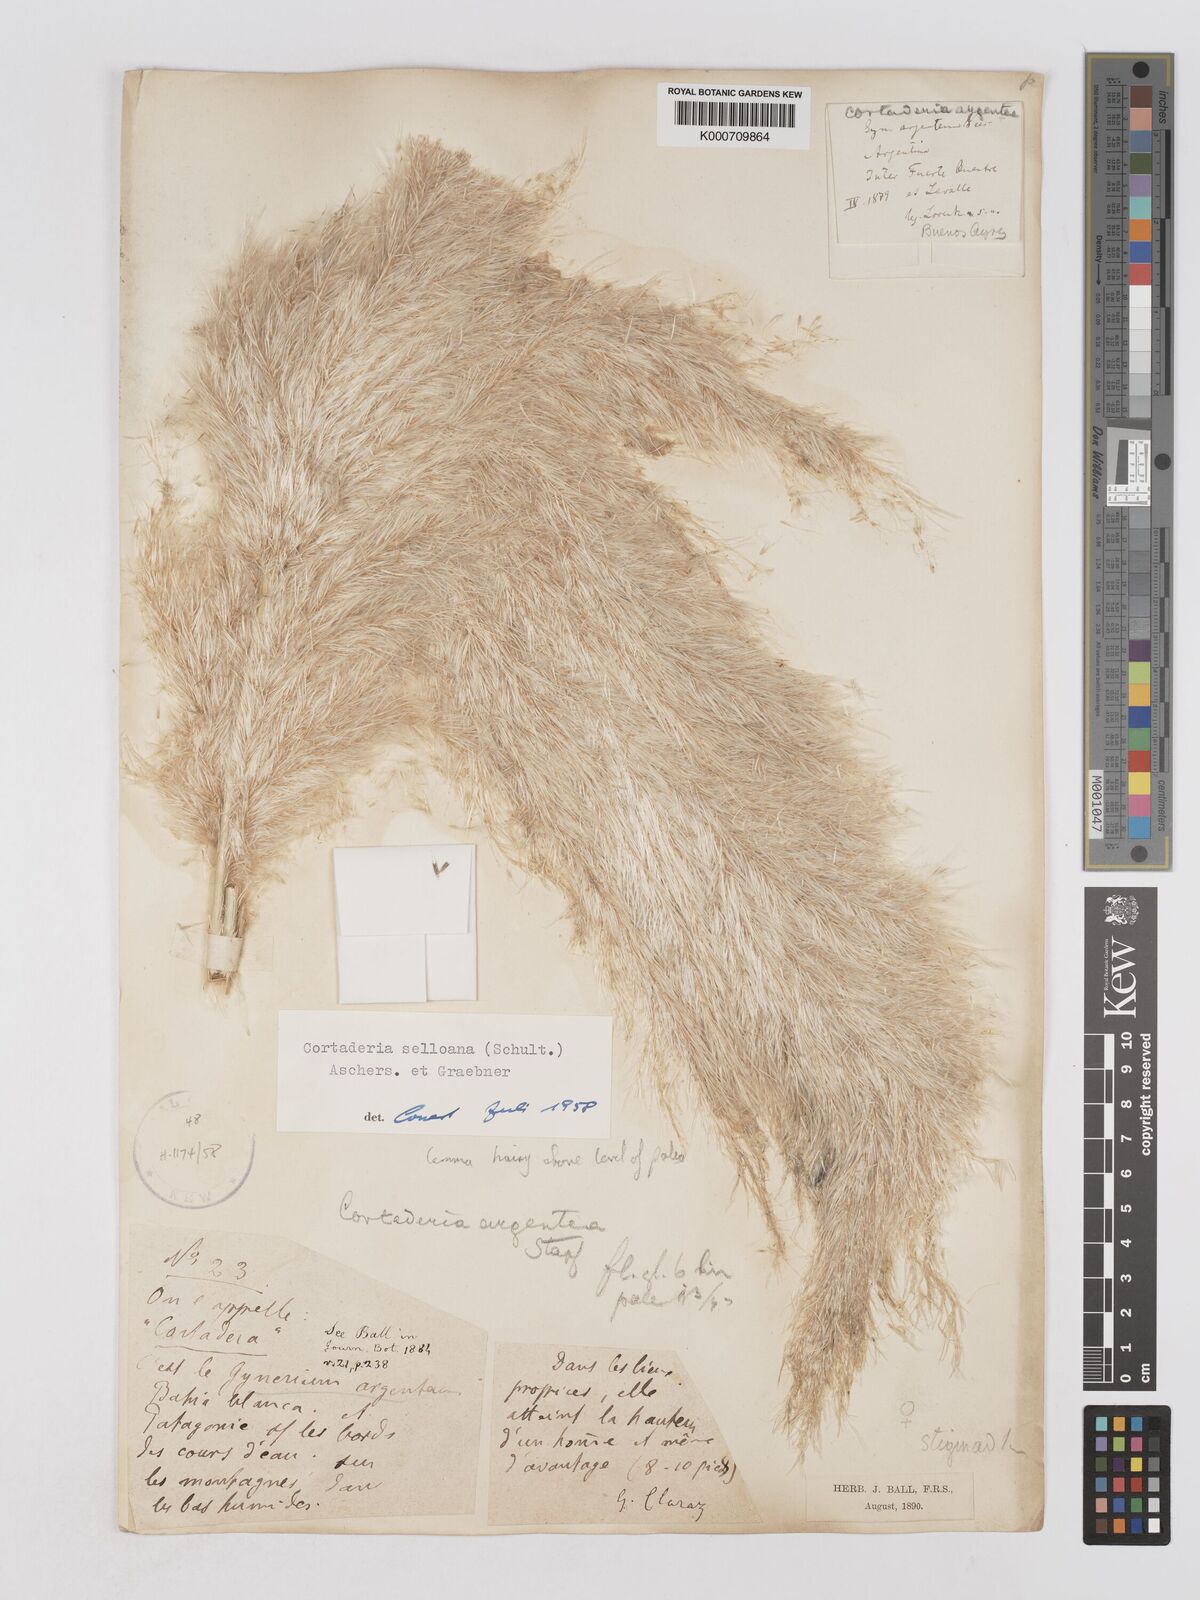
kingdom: Plantae
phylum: Tracheophyta
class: Liliopsida
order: Poales
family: Poaceae
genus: Cortaderia
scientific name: Cortaderia selloana
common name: Uruguayan pampas grass
